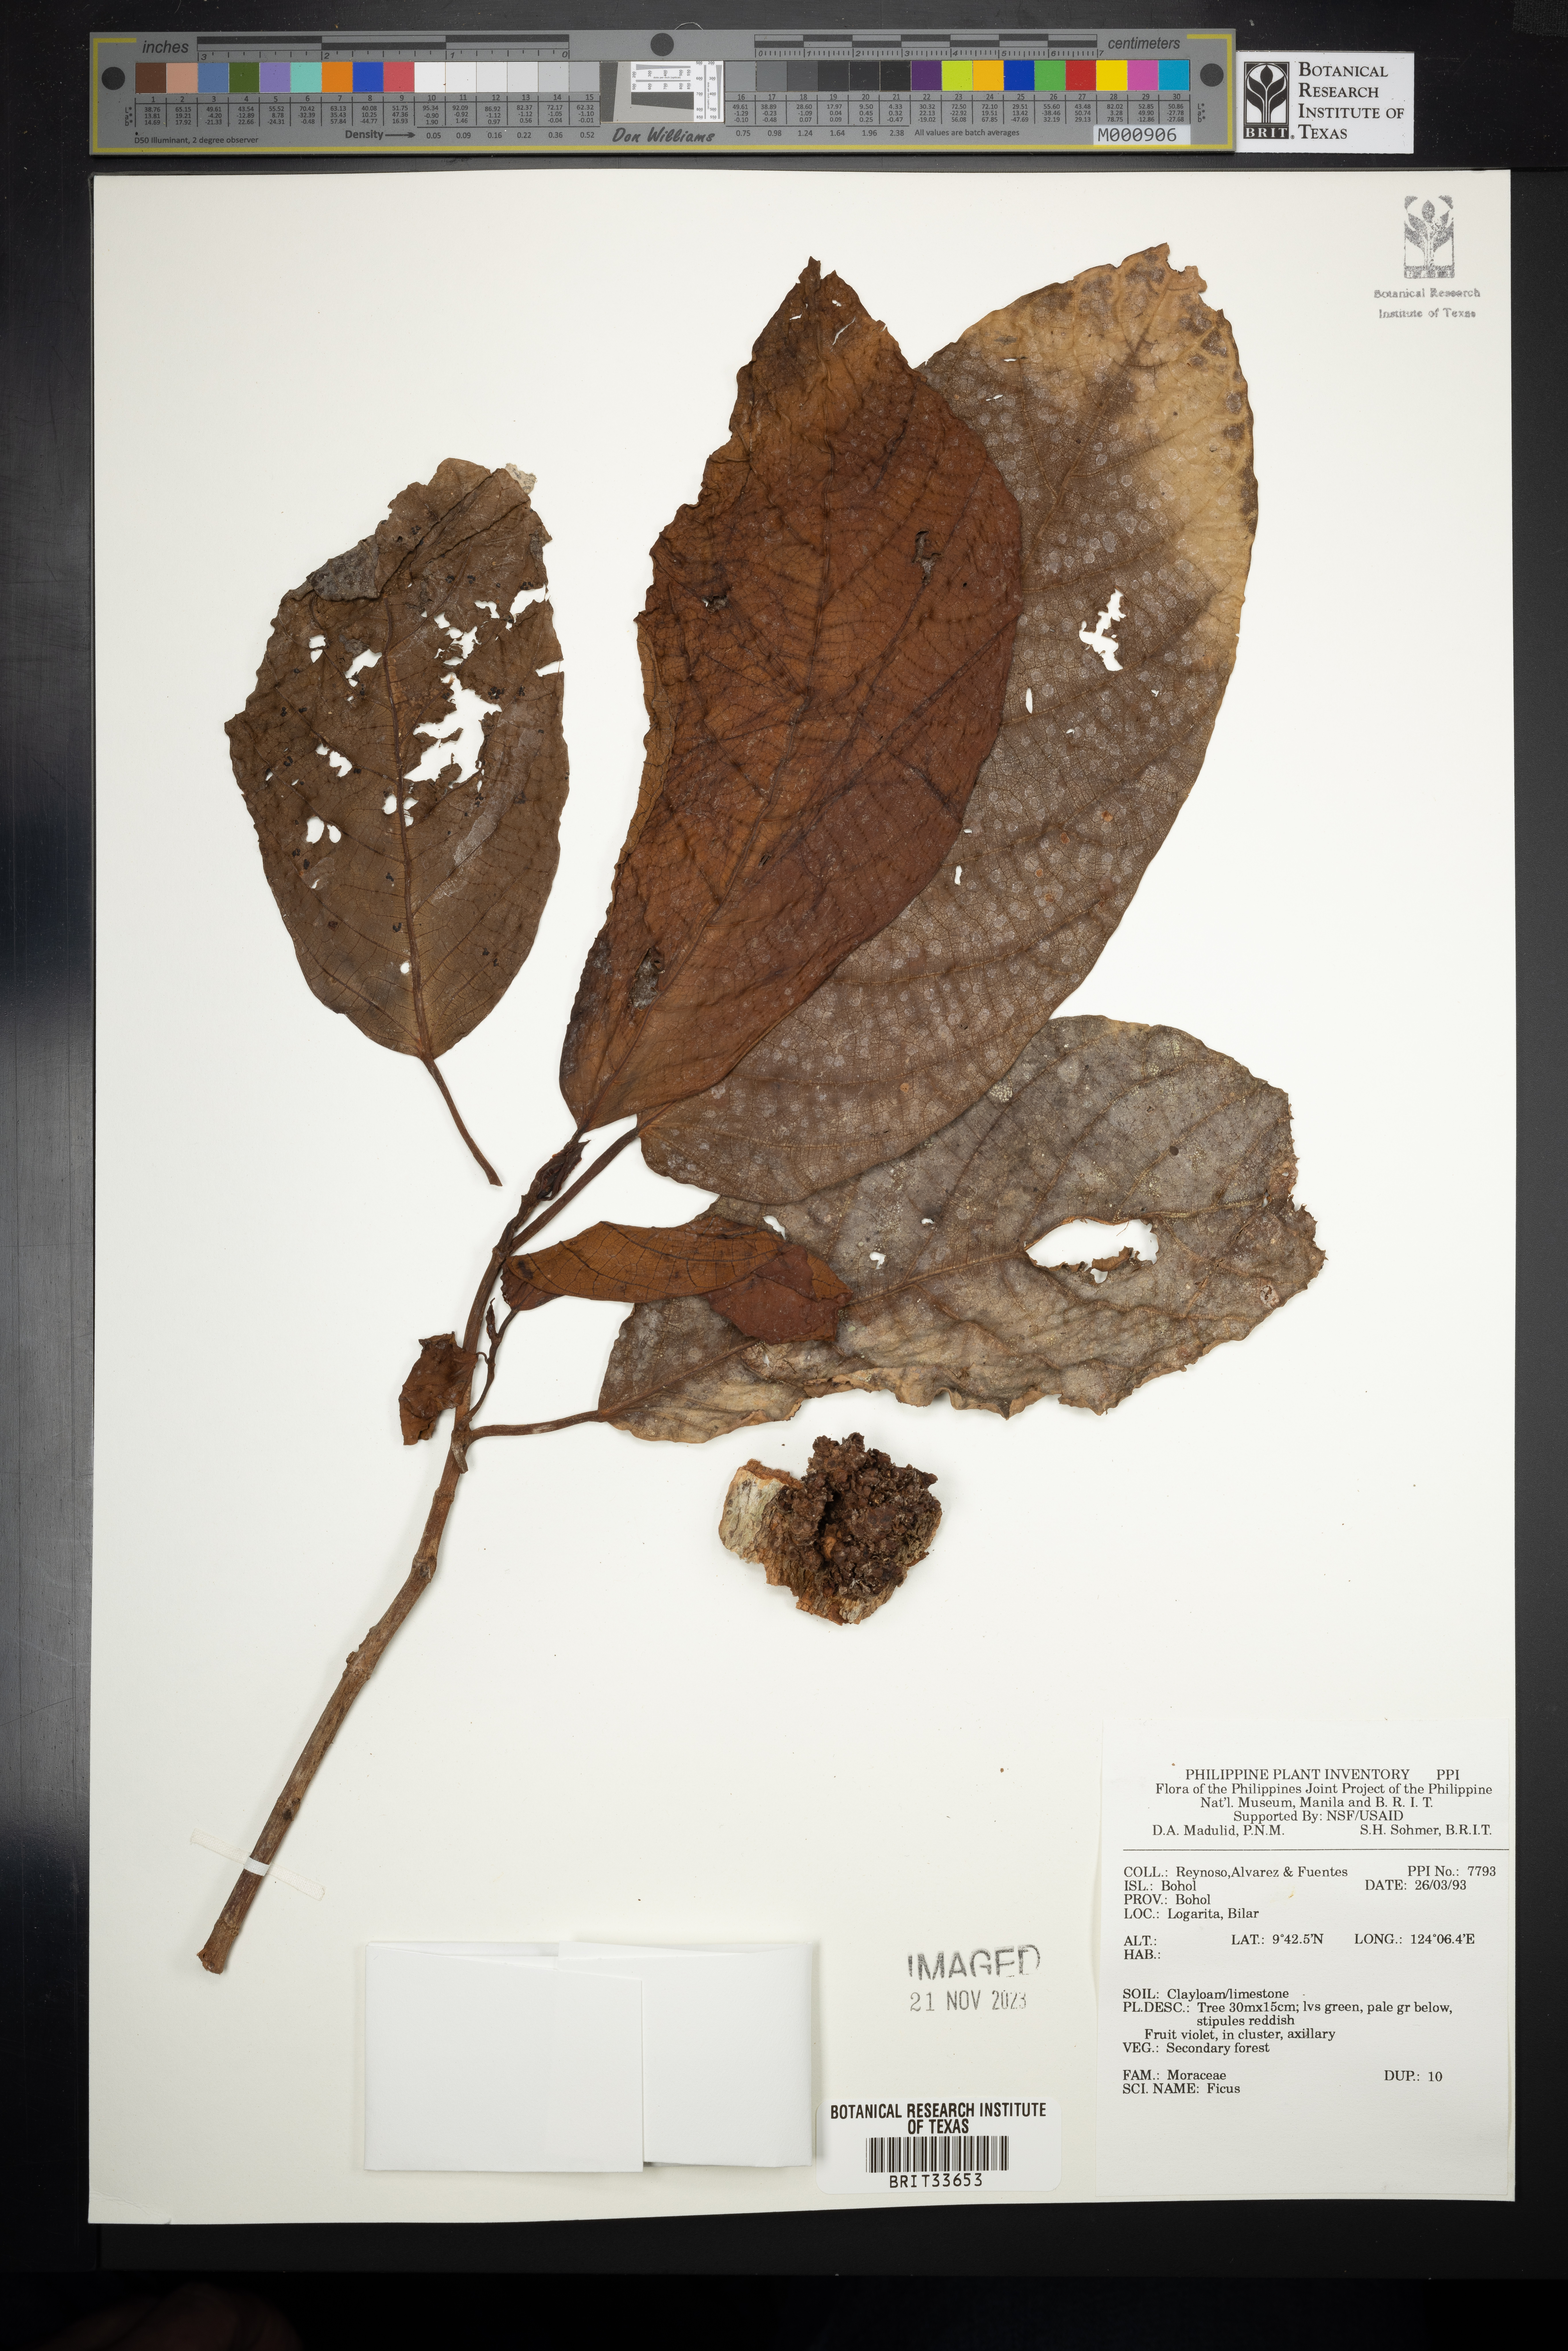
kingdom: Plantae
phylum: Tracheophyta
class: Magnoliopsida
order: Rosales
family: Moraceae
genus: Ficus
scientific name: Ficus
